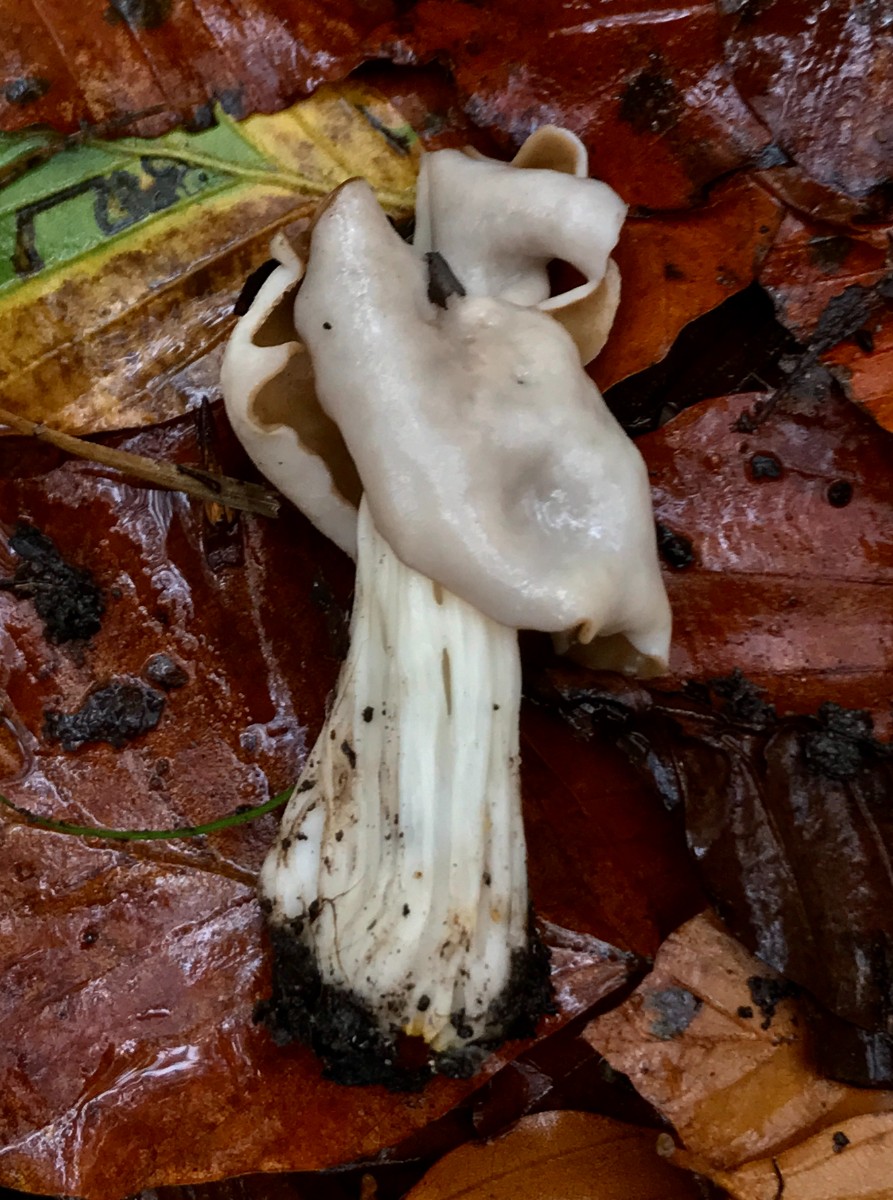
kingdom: Fungi
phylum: Ascomycota
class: Pezizomycetes
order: Pezizales
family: Helvellaceae
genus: Helvella
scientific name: Helvella crispa
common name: kruset foldhat
